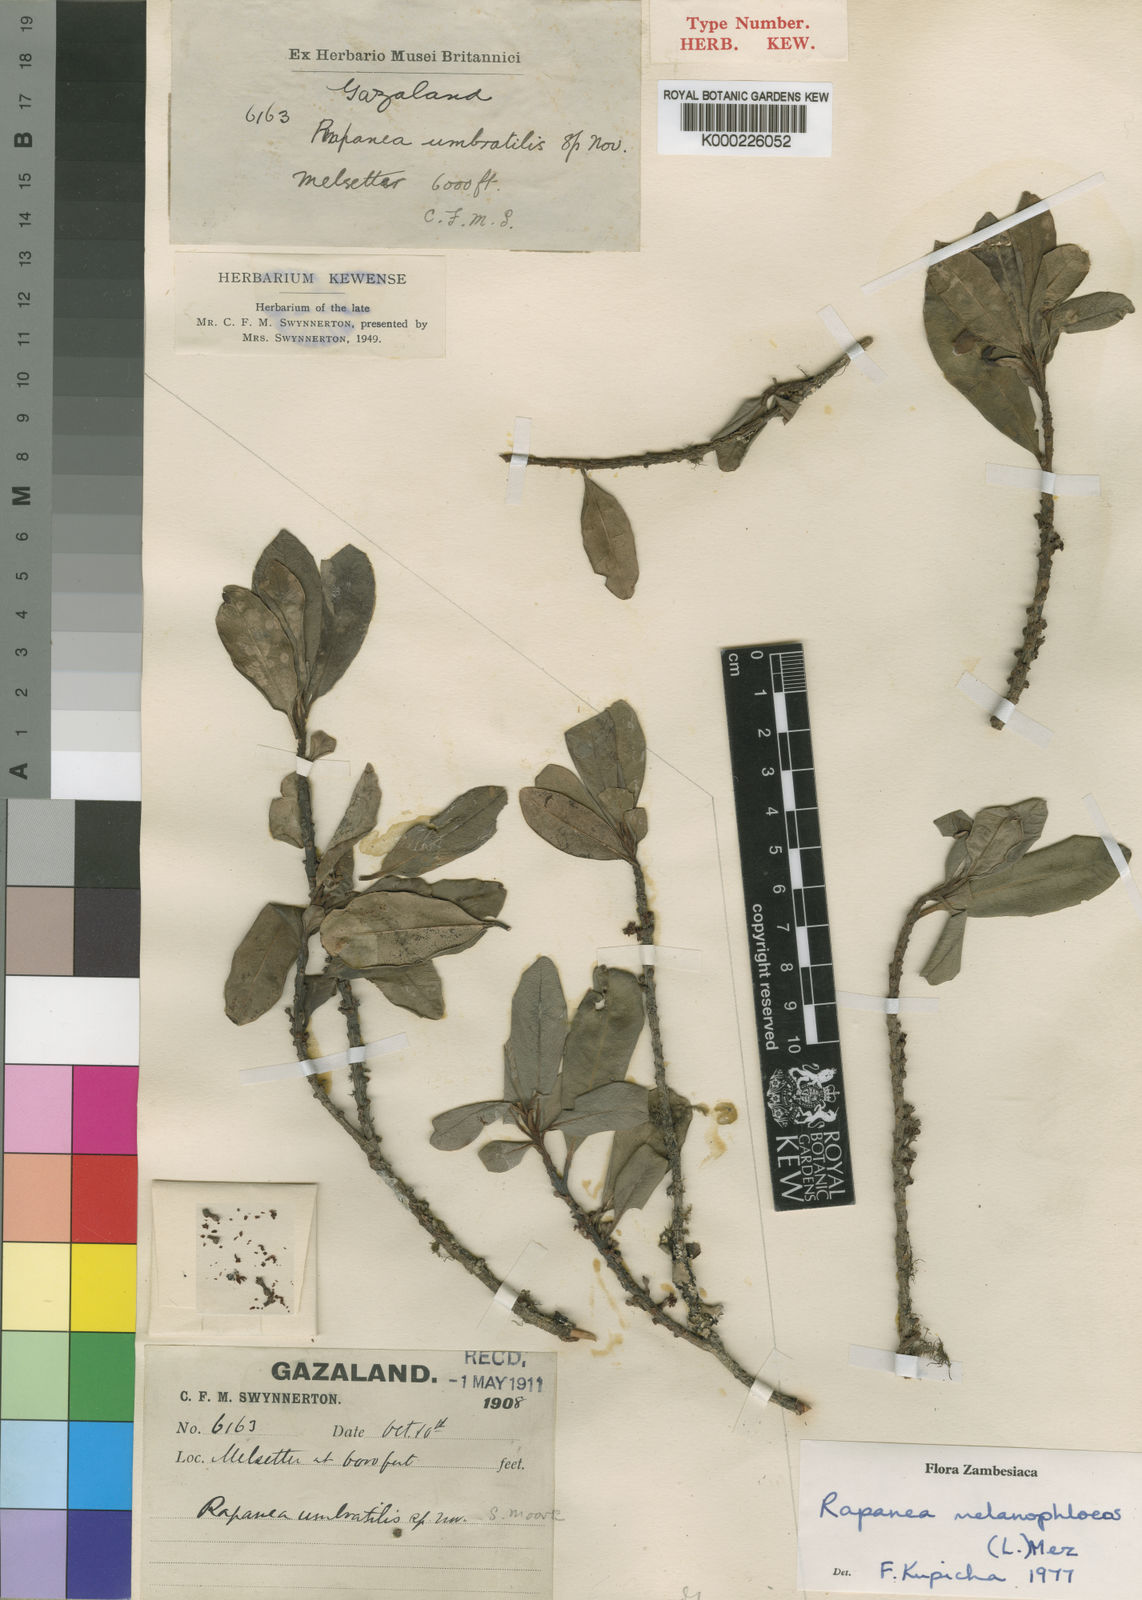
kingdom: Plantae
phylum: Tracheophyta
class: Magnoliopsida
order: Ericales
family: Primulaceae
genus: Myrsine
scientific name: Myrsine melanophloeos
